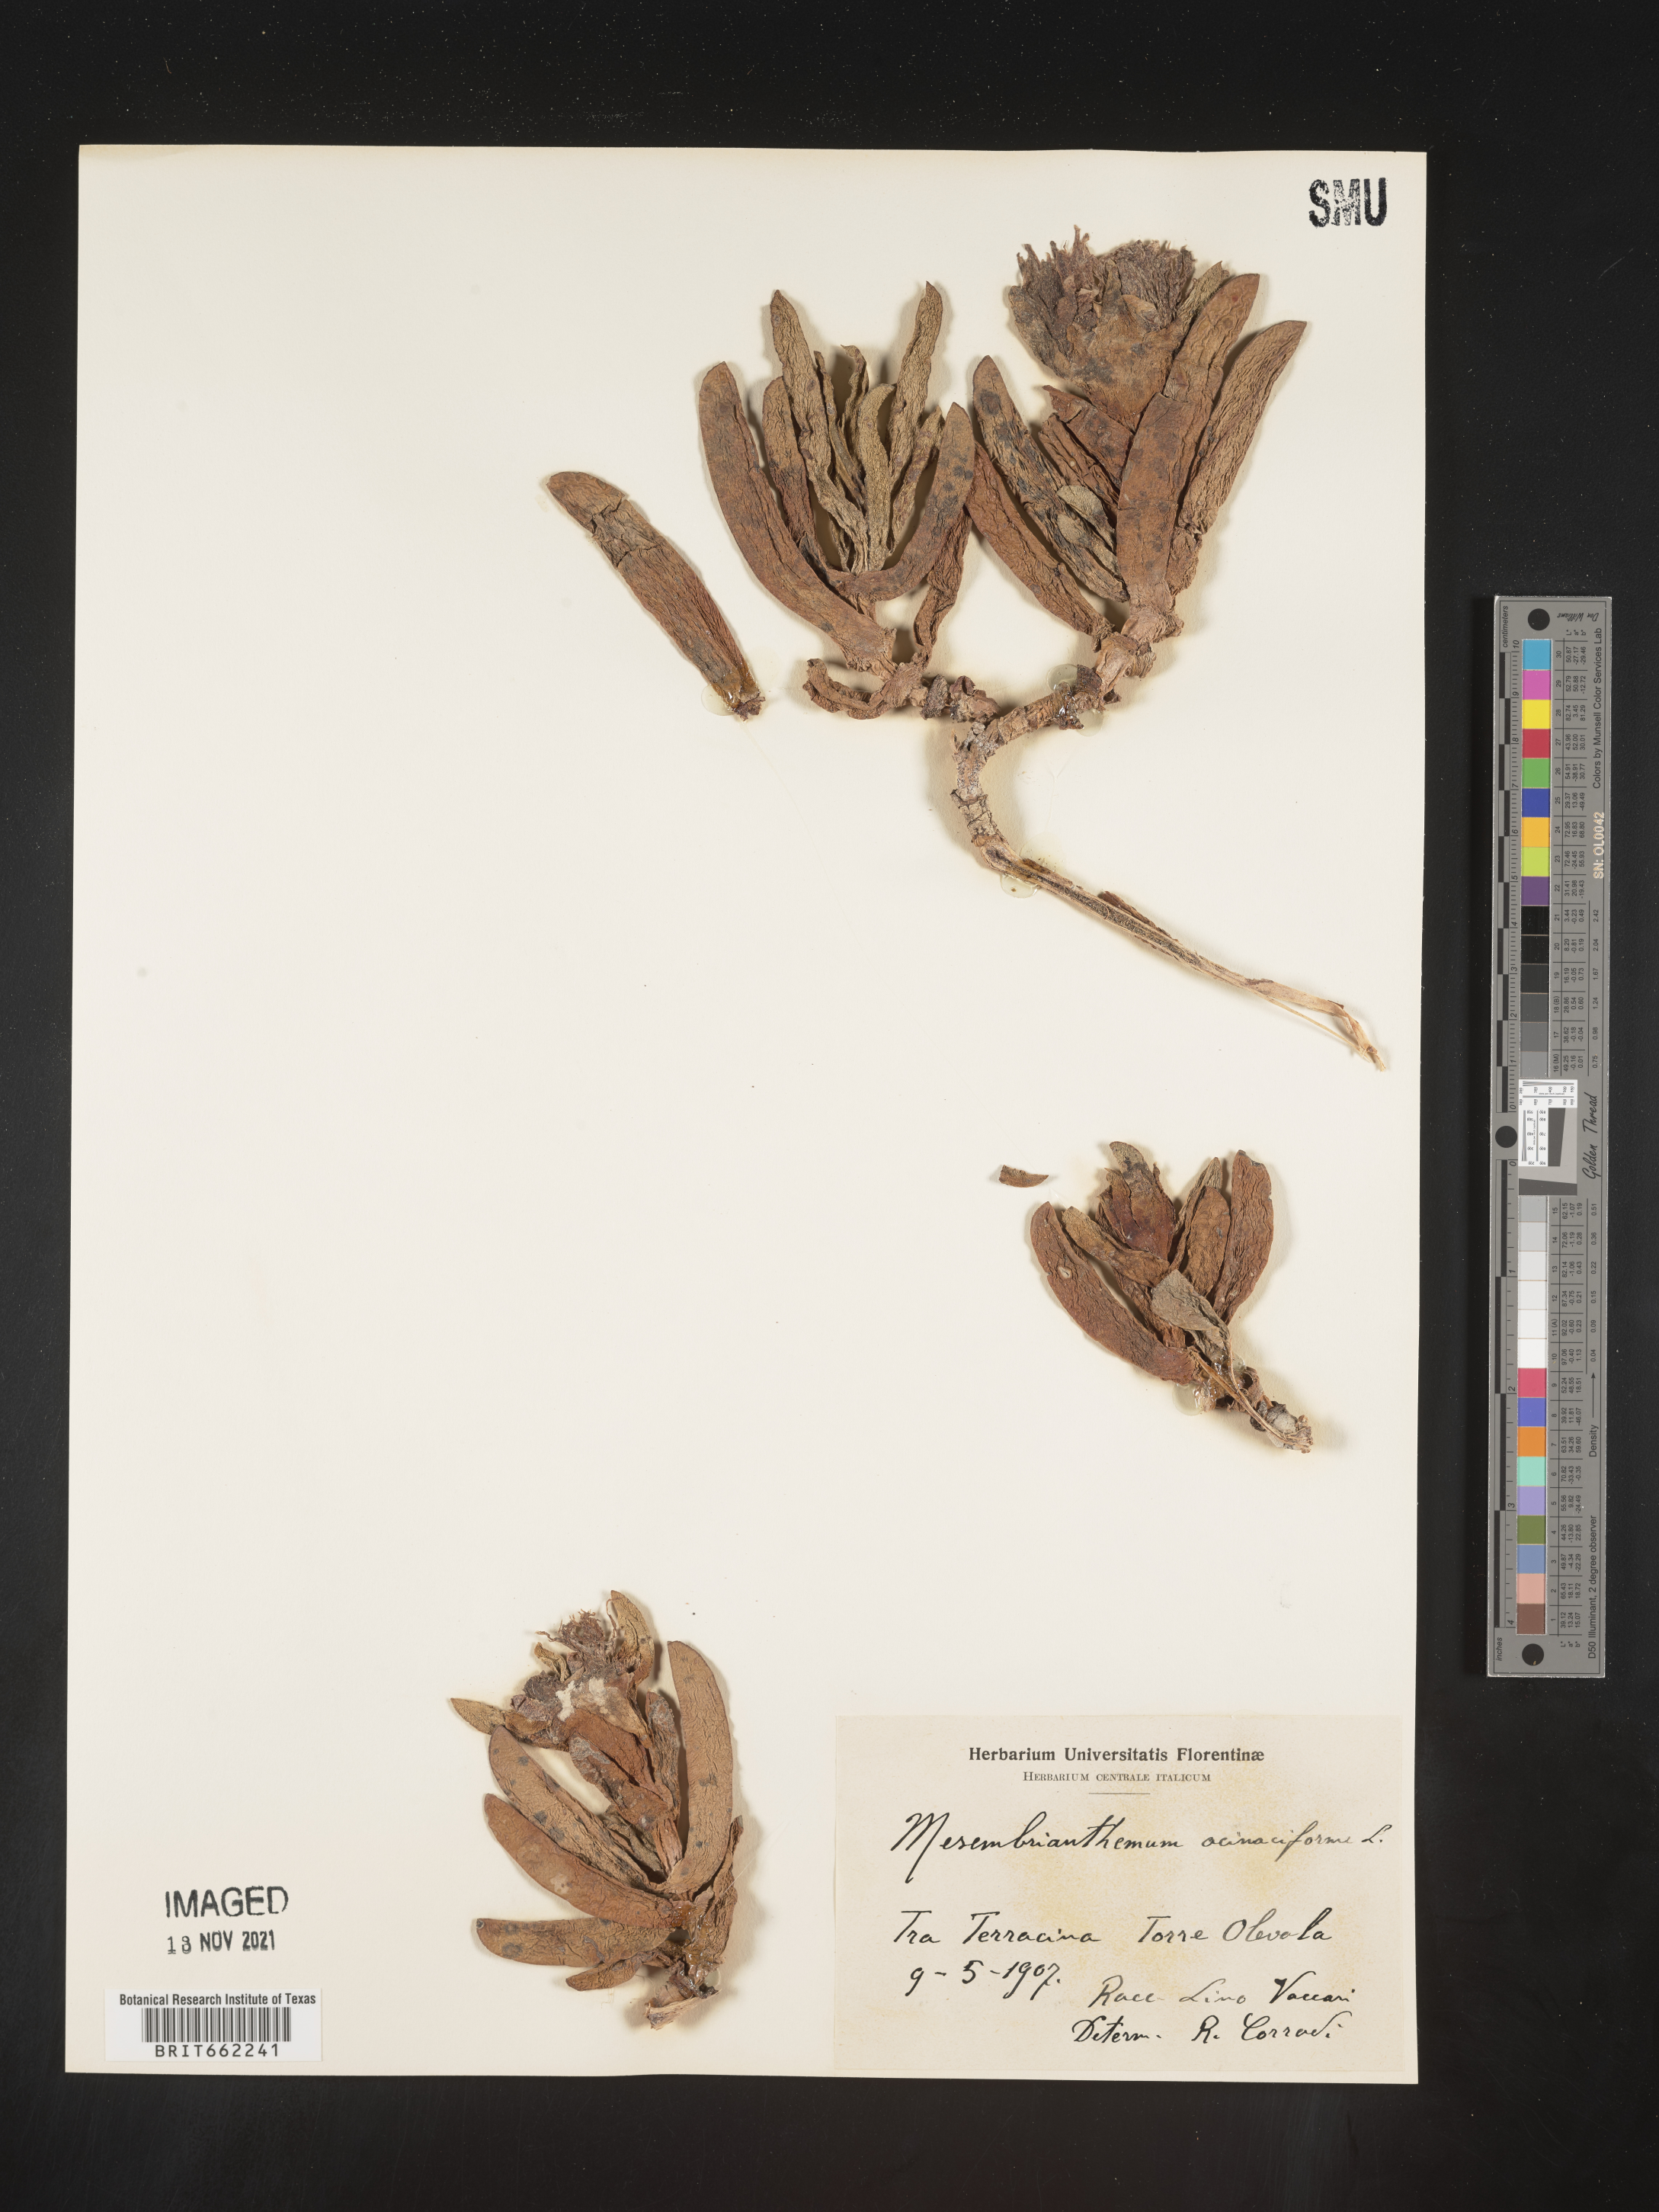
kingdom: Plantae
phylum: Tracheophyta
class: Magnoliopsida
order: Caryophyllales
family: Aizoaceae
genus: Mesembryanthemum
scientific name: Mesembryanthemum
